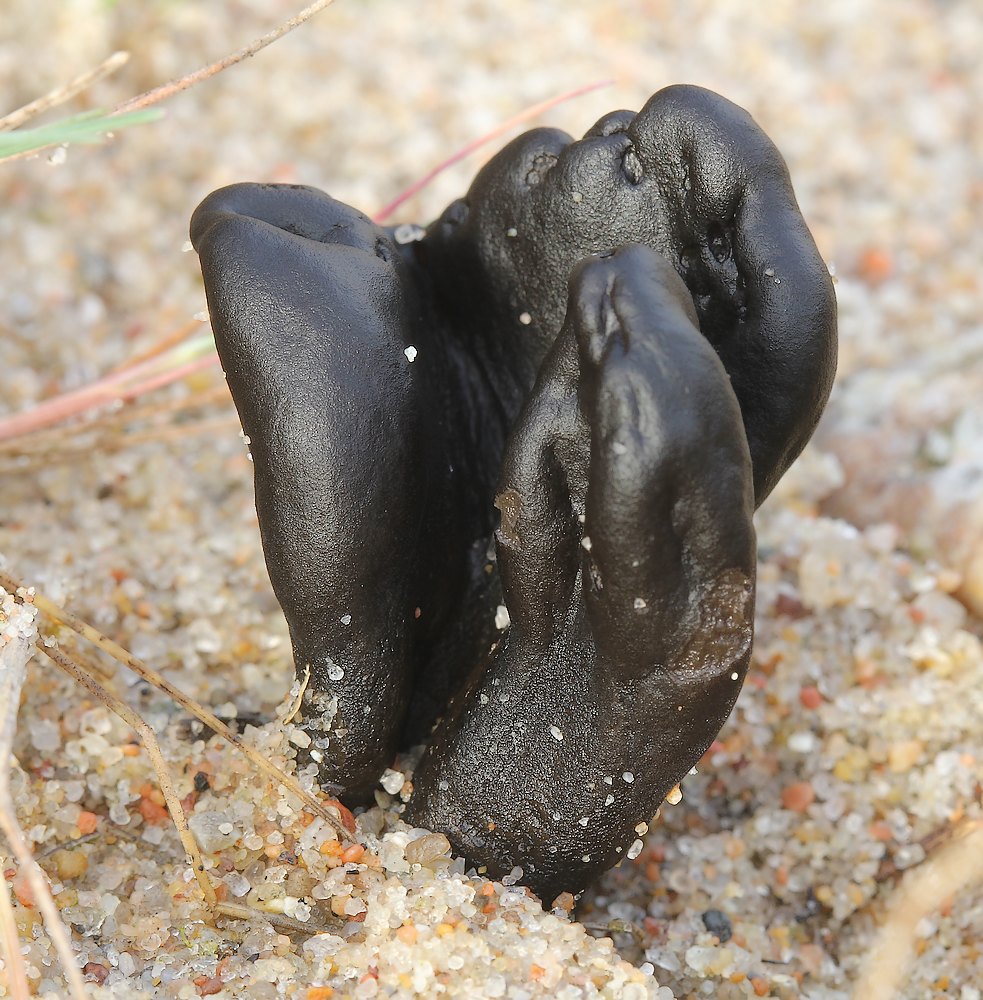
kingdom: Fungi
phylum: Ascomycota
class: Geoglossomycetes
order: Geoglossales
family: Geoglossaceae
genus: Sabuloglossum
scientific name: Sabuloglossum arenarium
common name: klit-jordtunge
